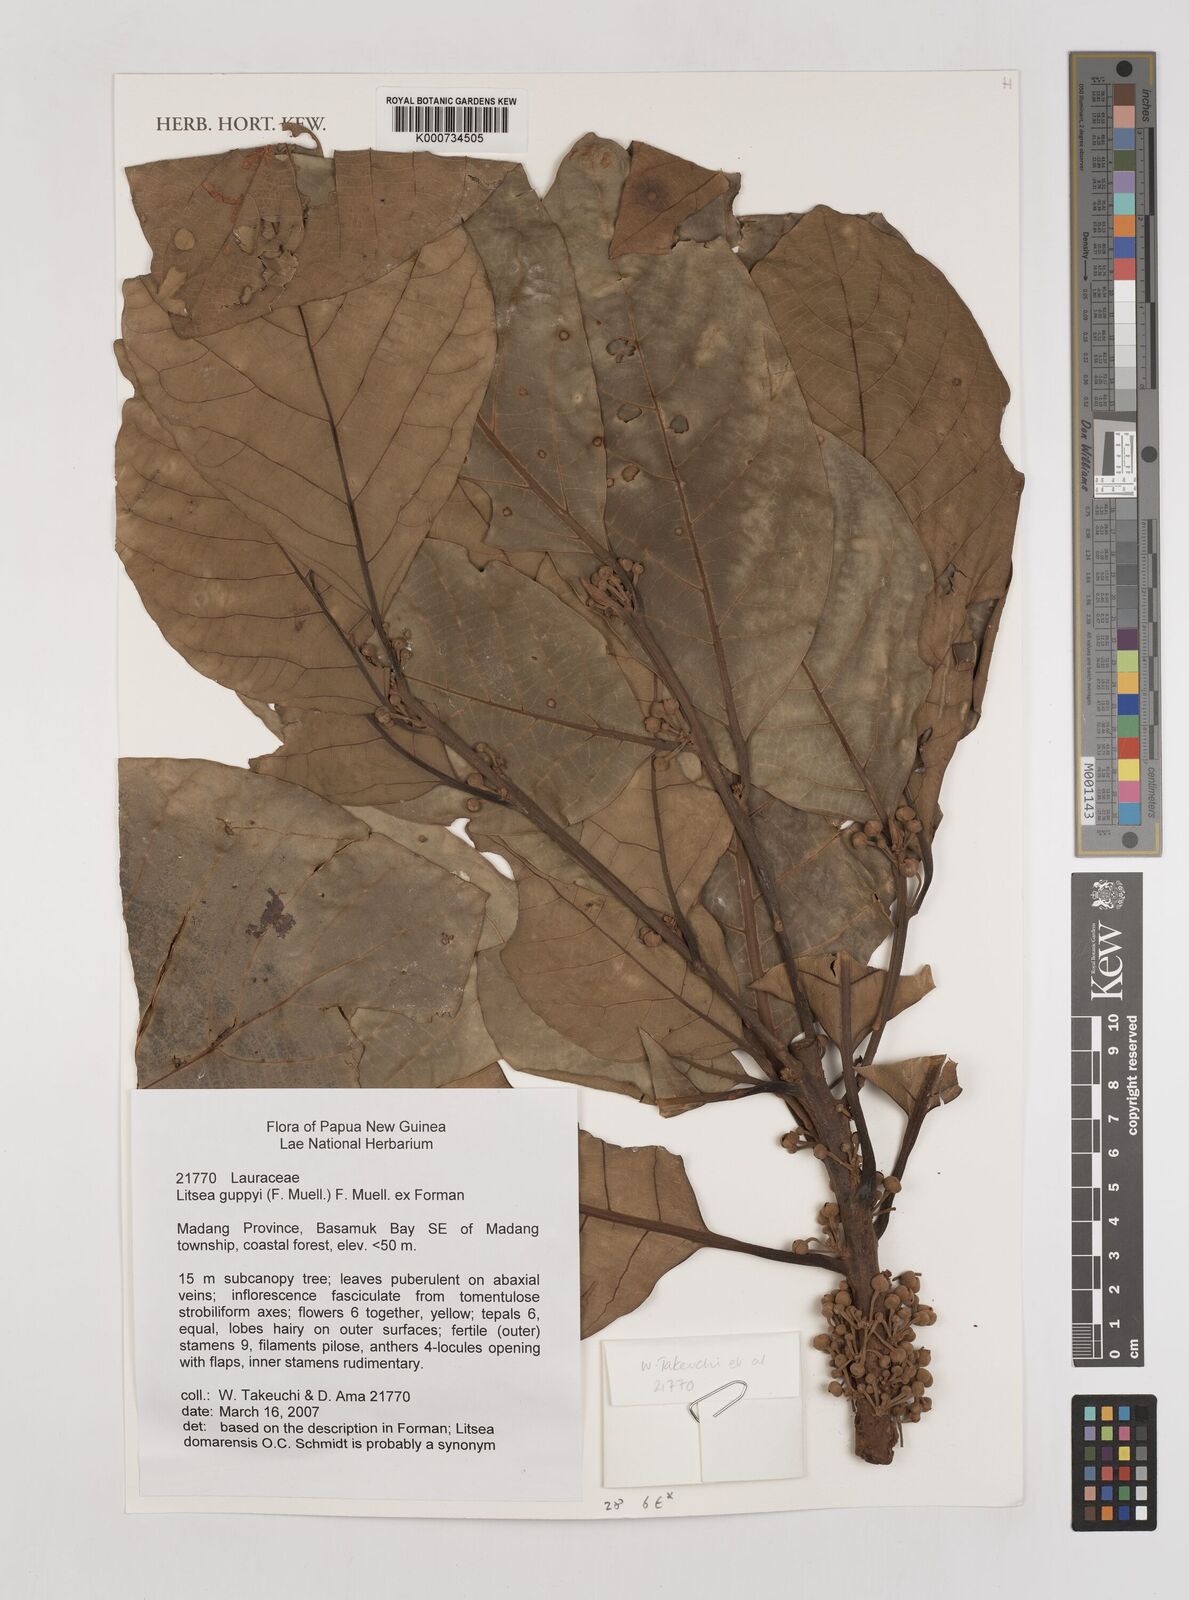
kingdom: Plantae
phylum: Tracheophyta
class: Magnoliopsida
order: Laurales
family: Lauraceae
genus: Litsea
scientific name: Litsea guppyi
